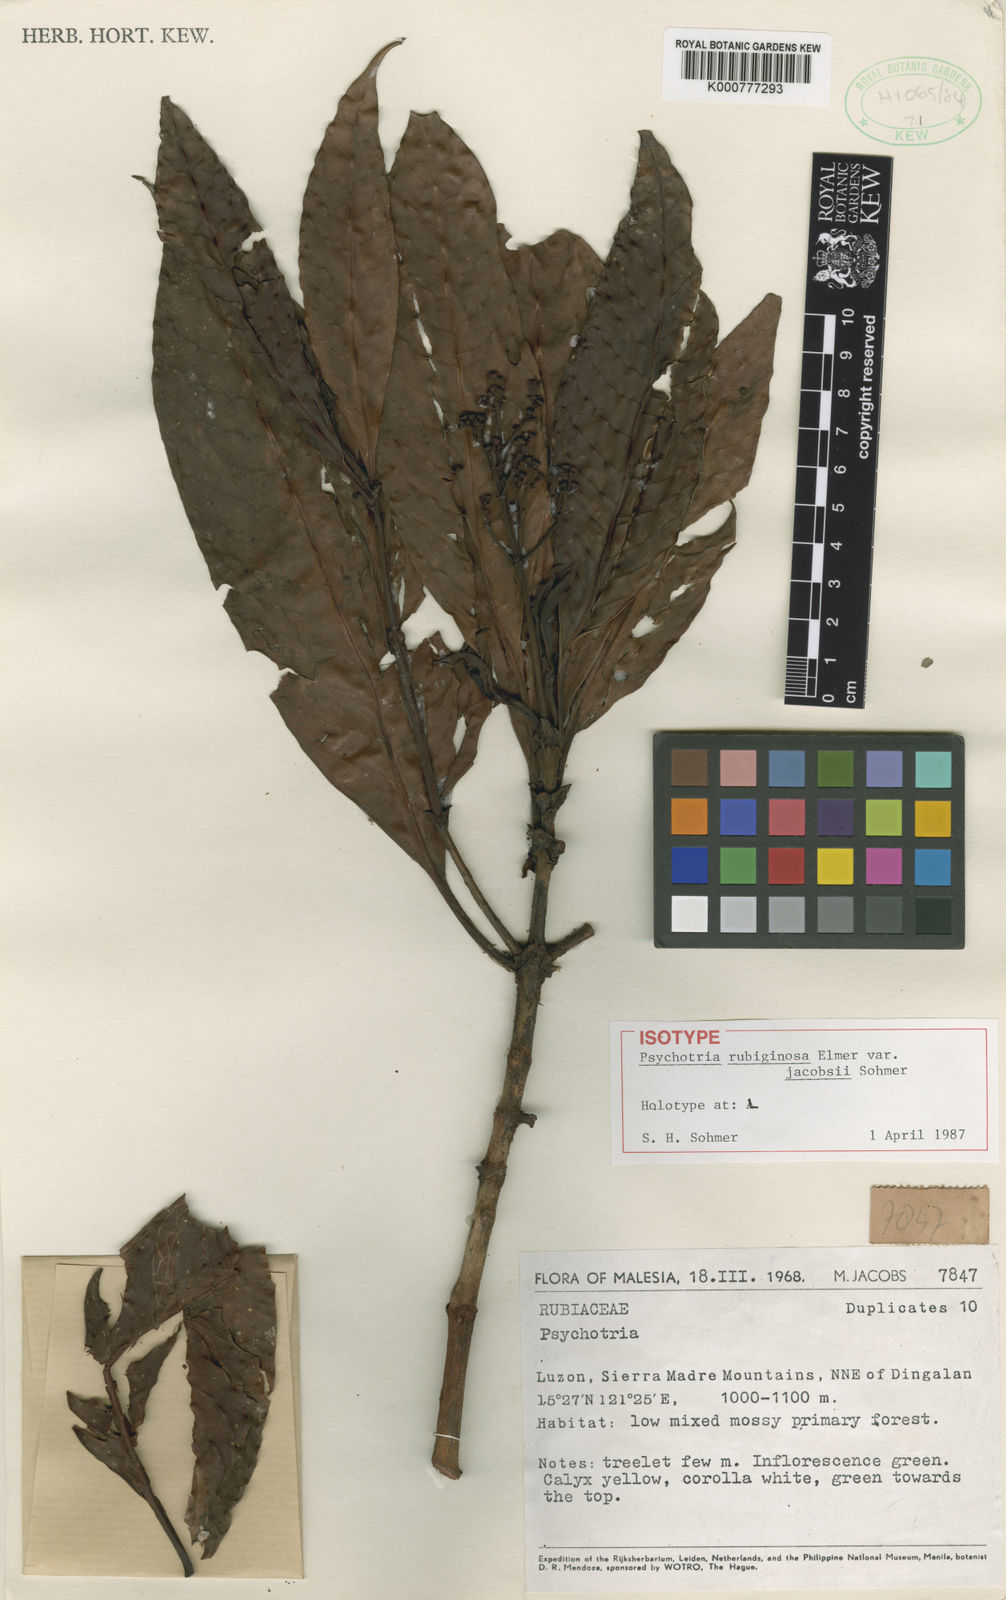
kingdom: Plantae
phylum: Tracheophyta
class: Magnoliopsida
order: Gentianales
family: Rubiaceae
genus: Psychotria
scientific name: Psychotria rubiginosa
